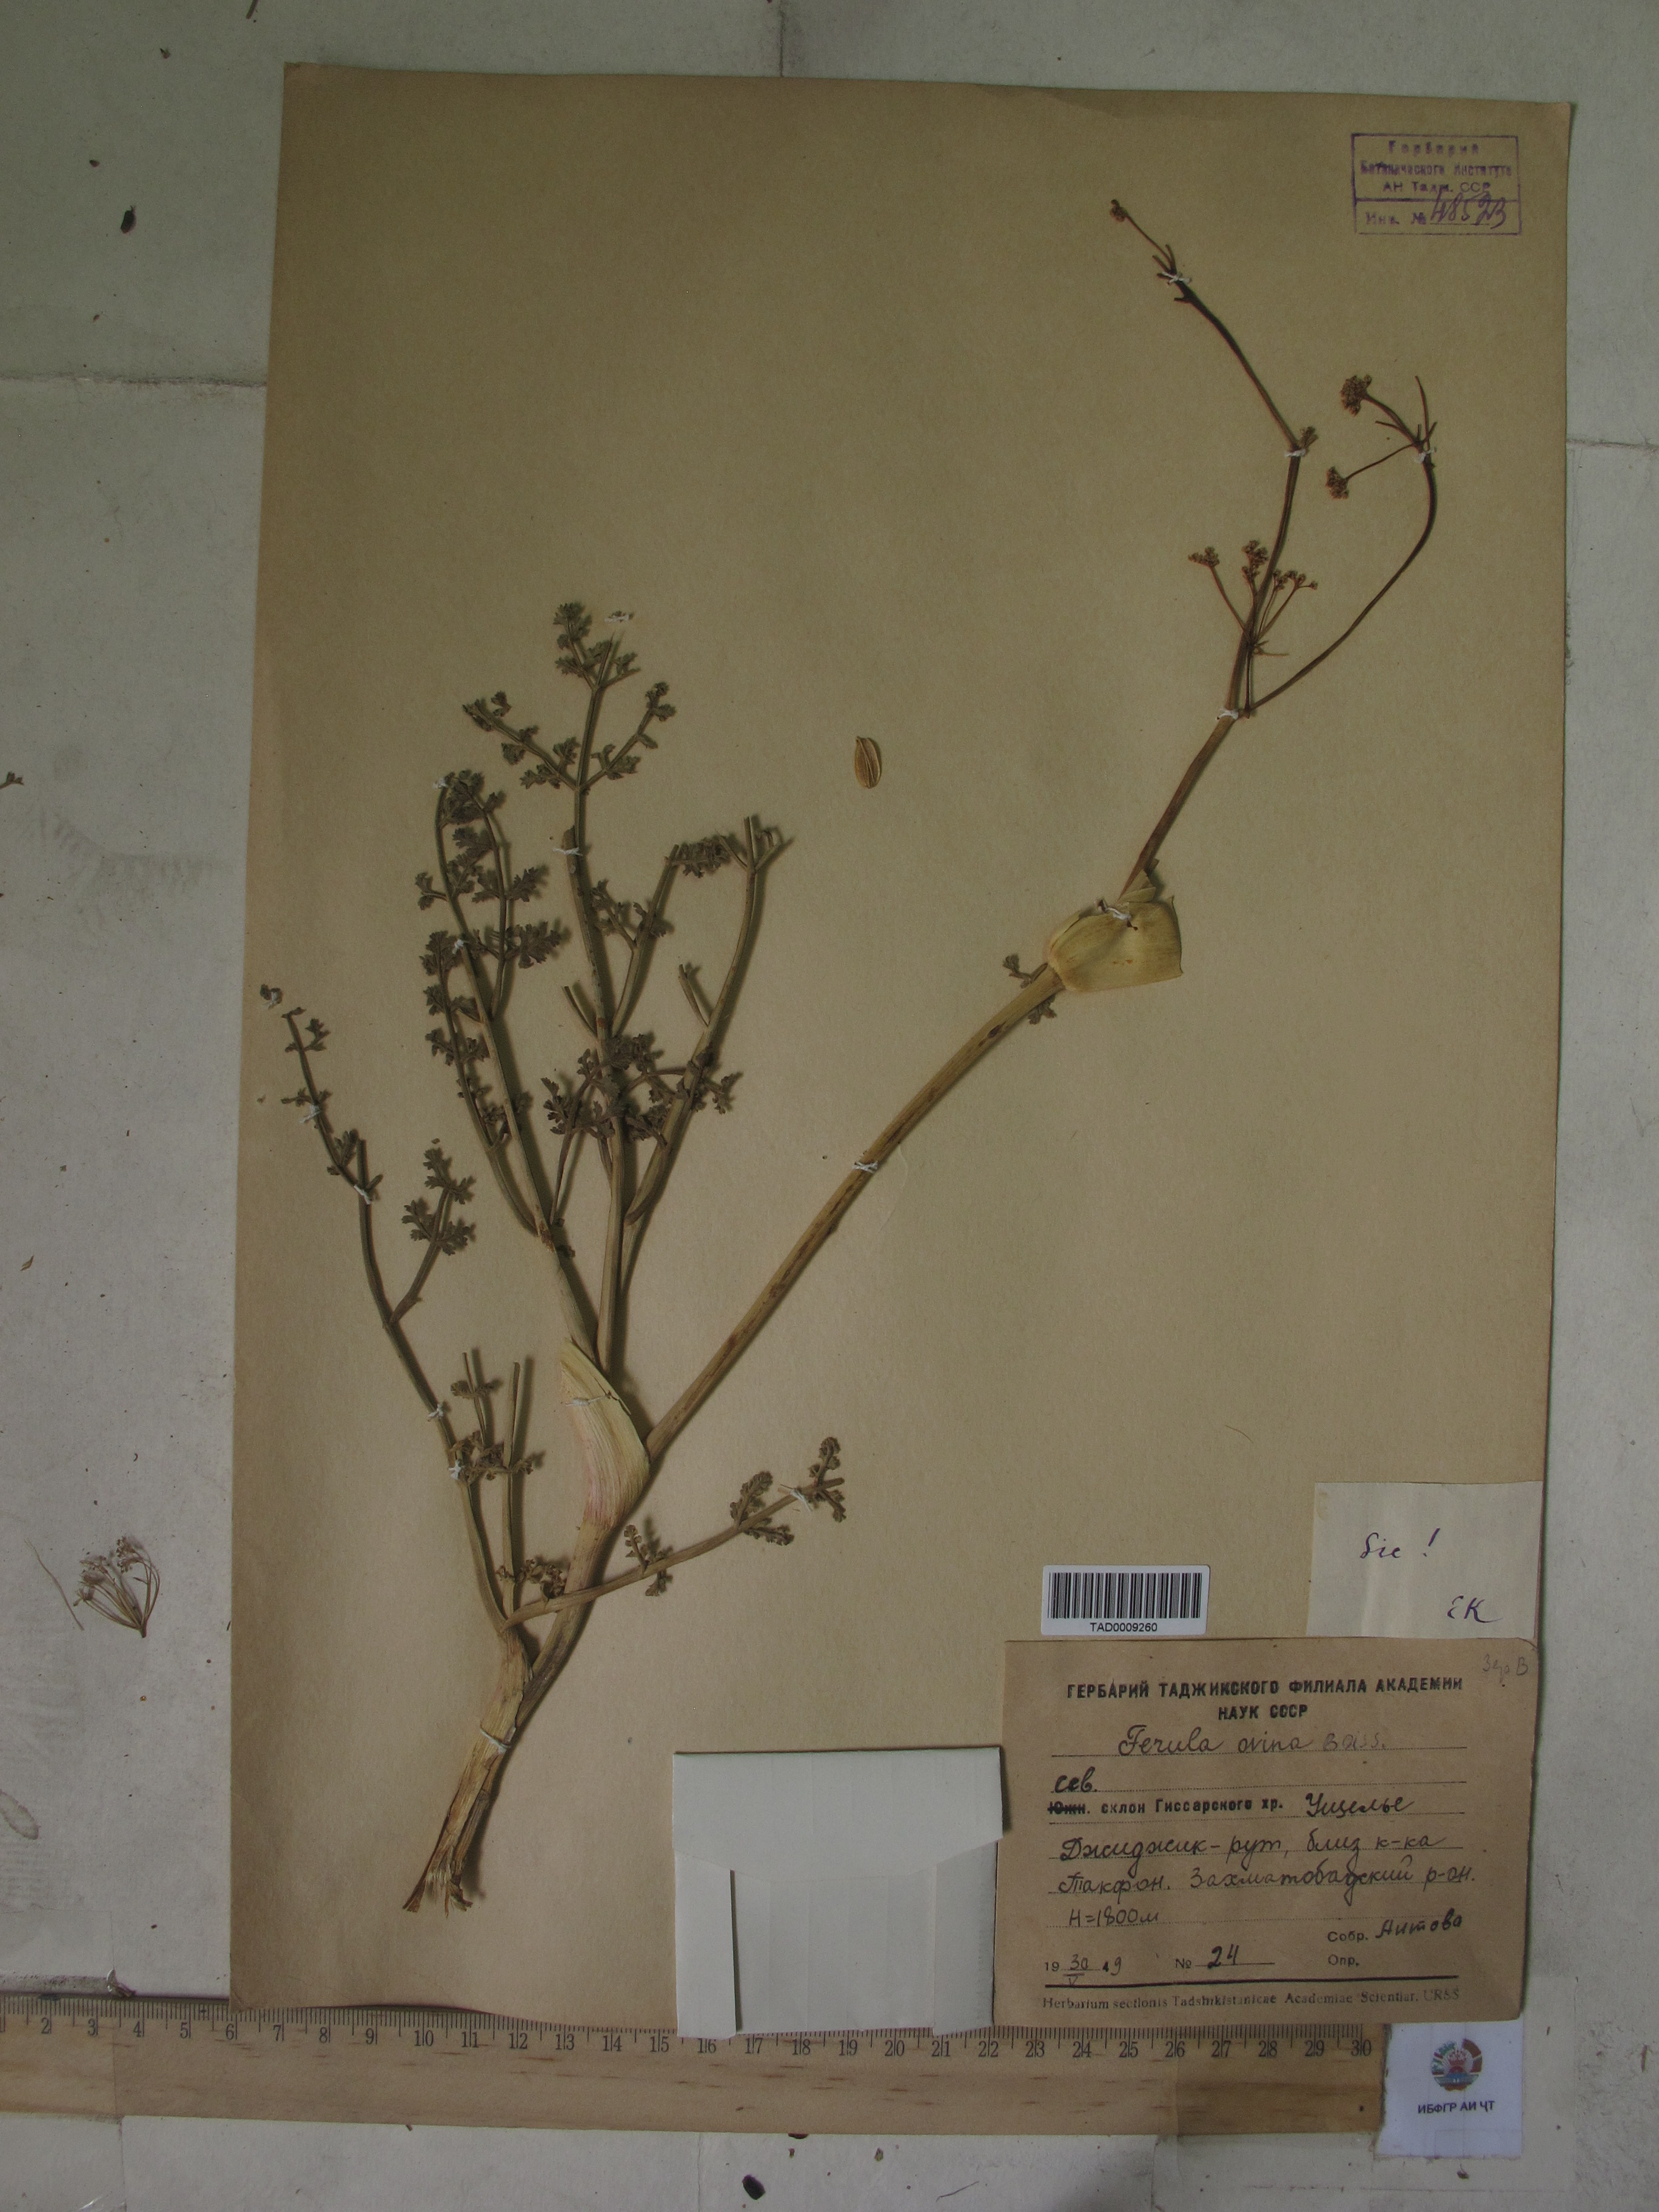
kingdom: Plantae
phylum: Tracheophyta
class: Magnoliopsida
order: Apiales
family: Apiaceae
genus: Ferula
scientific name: Ferula ovina
